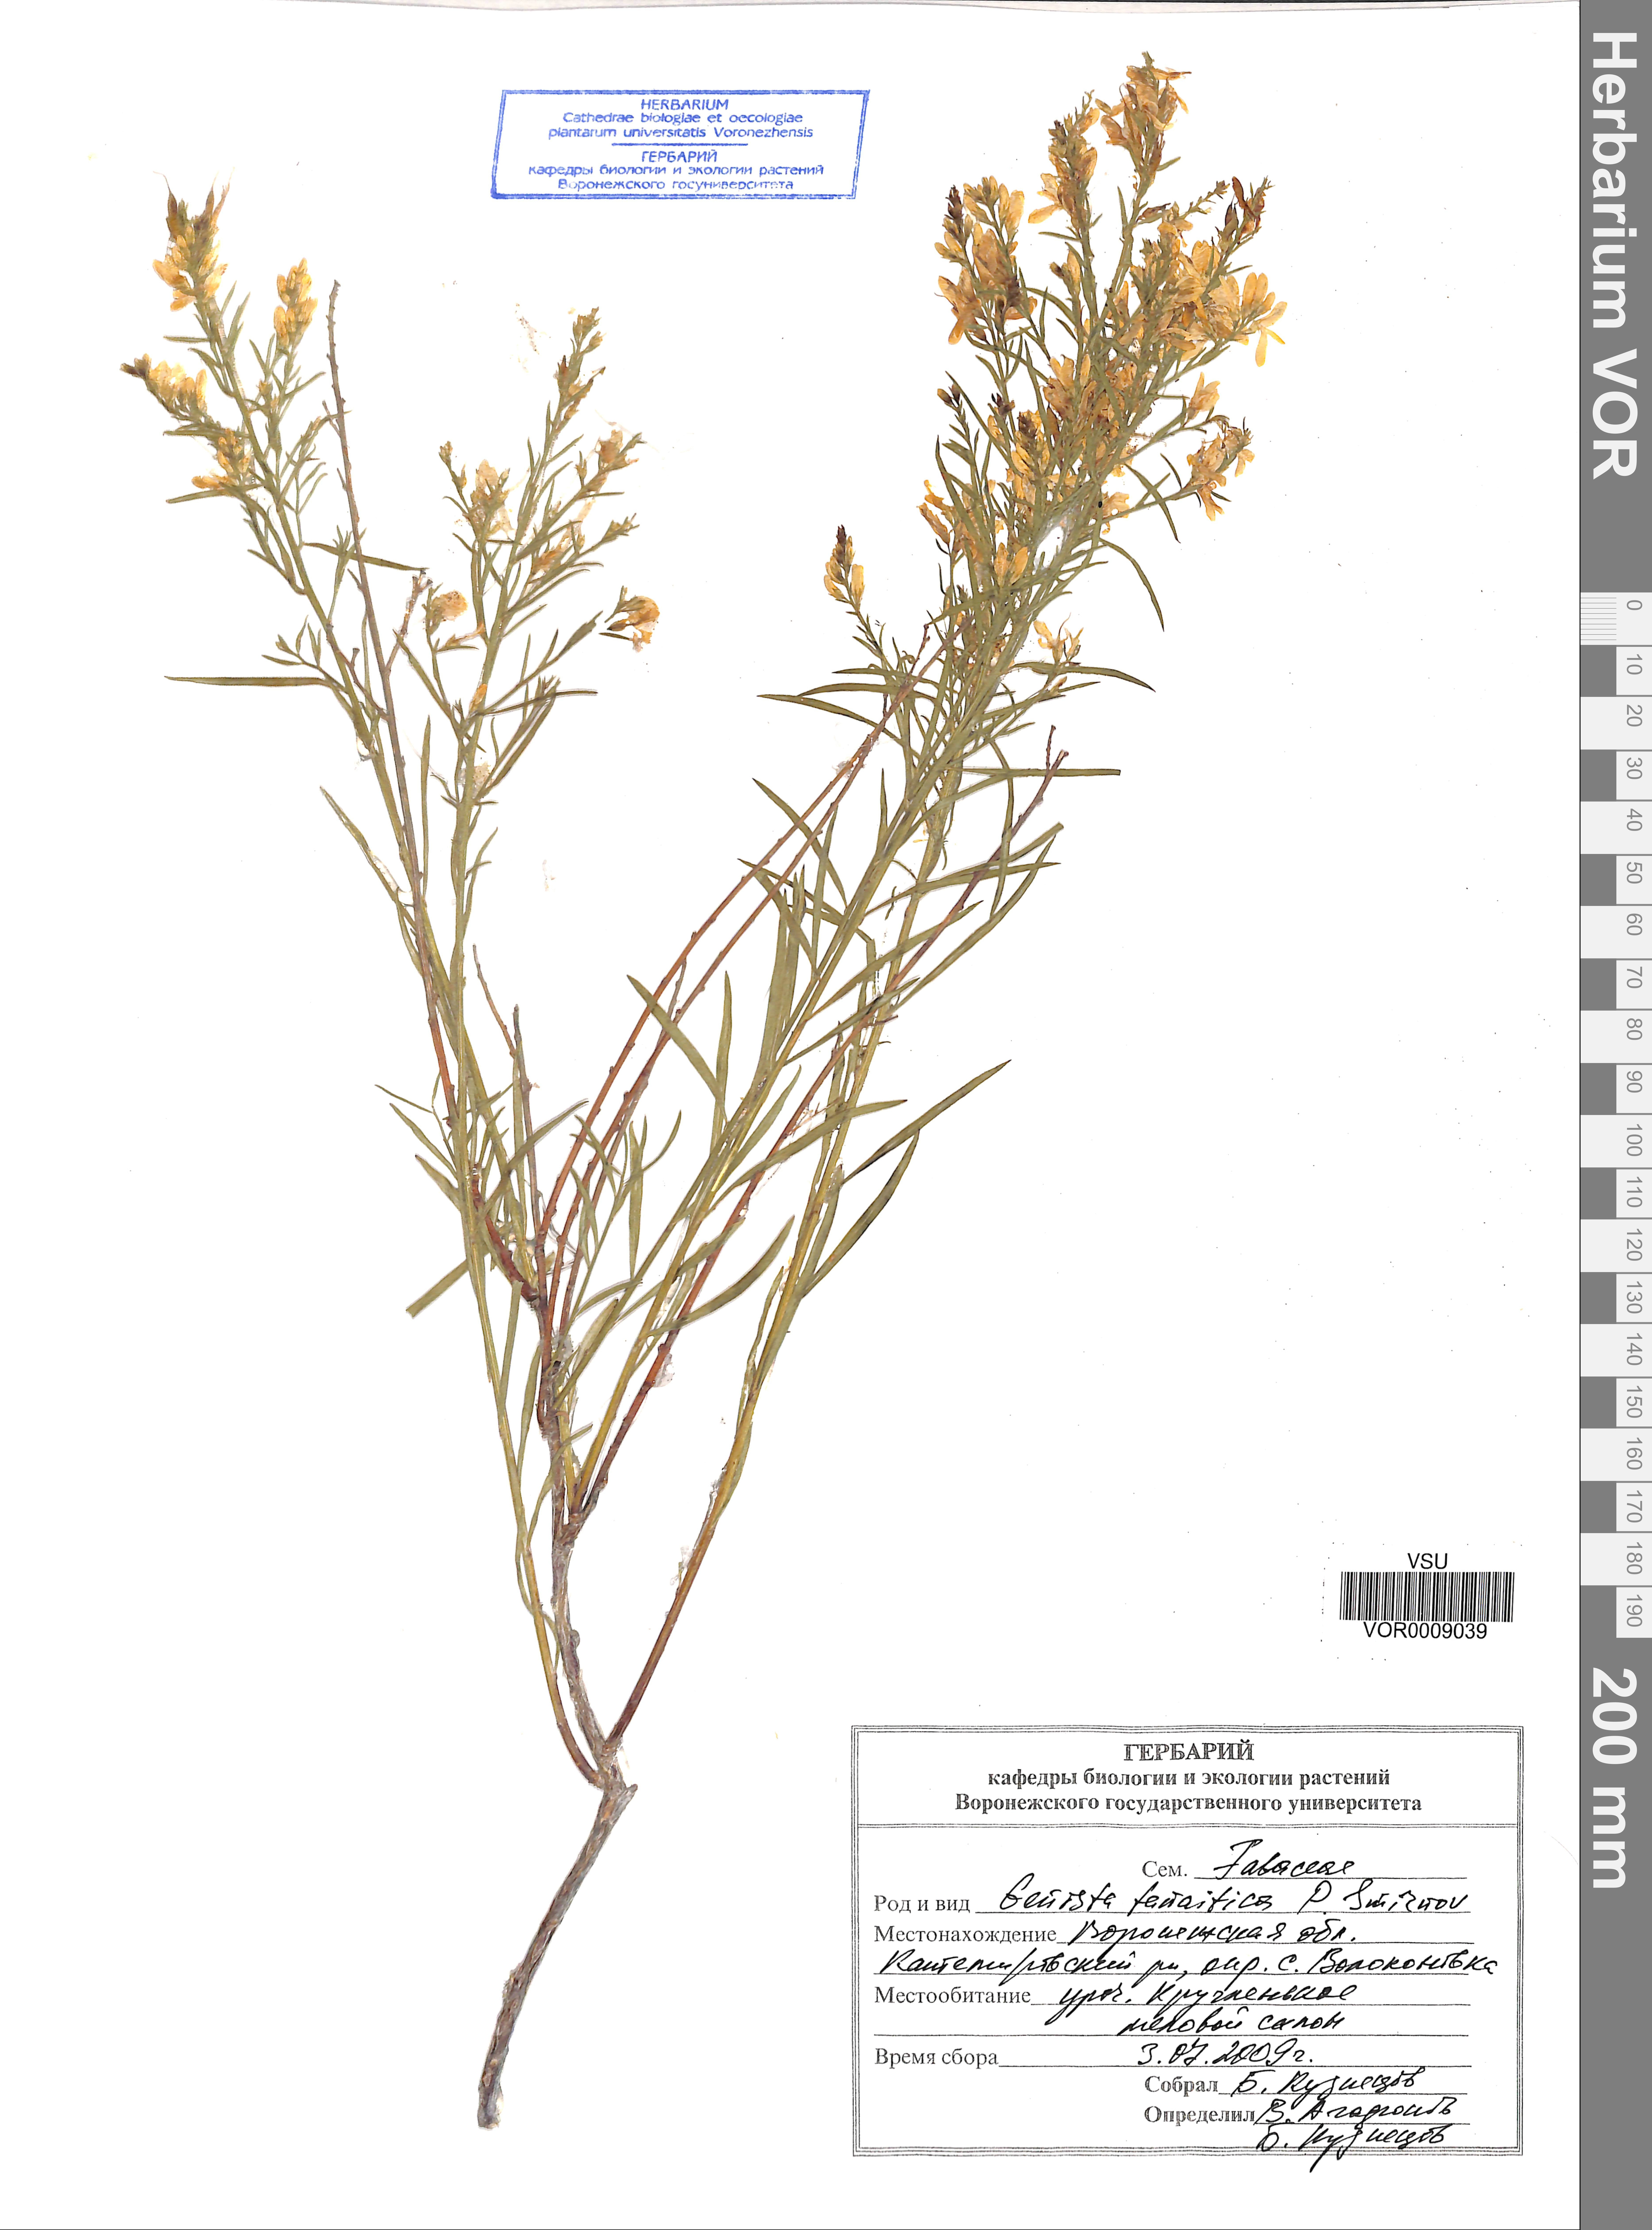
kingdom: Plantae
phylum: Tracheophyta
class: Magnoliopsida
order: Fabales
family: Fabaceae
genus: Genista
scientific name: Genista tinctoria
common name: Dyer's greenweed
